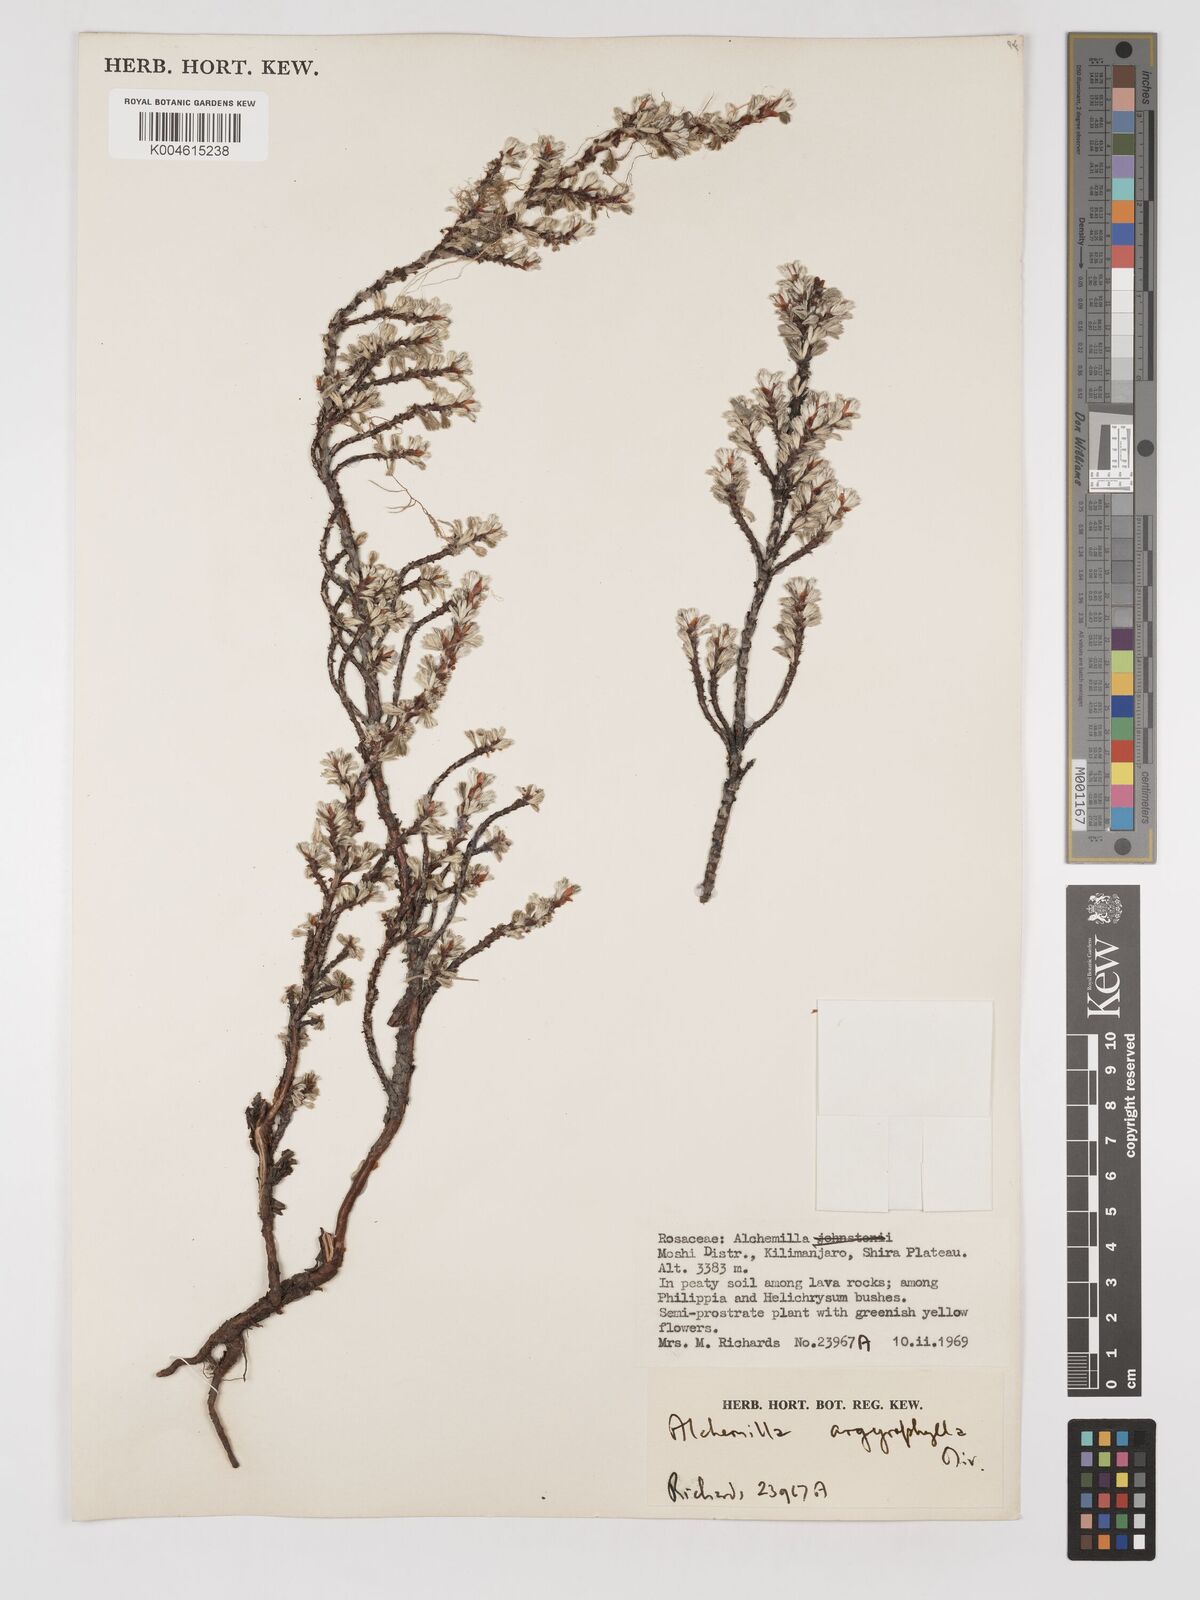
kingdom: Plantae
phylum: Tracheophyta
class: Magnoliopsida
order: Rosales
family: Rosaceae
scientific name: Rosaceae
